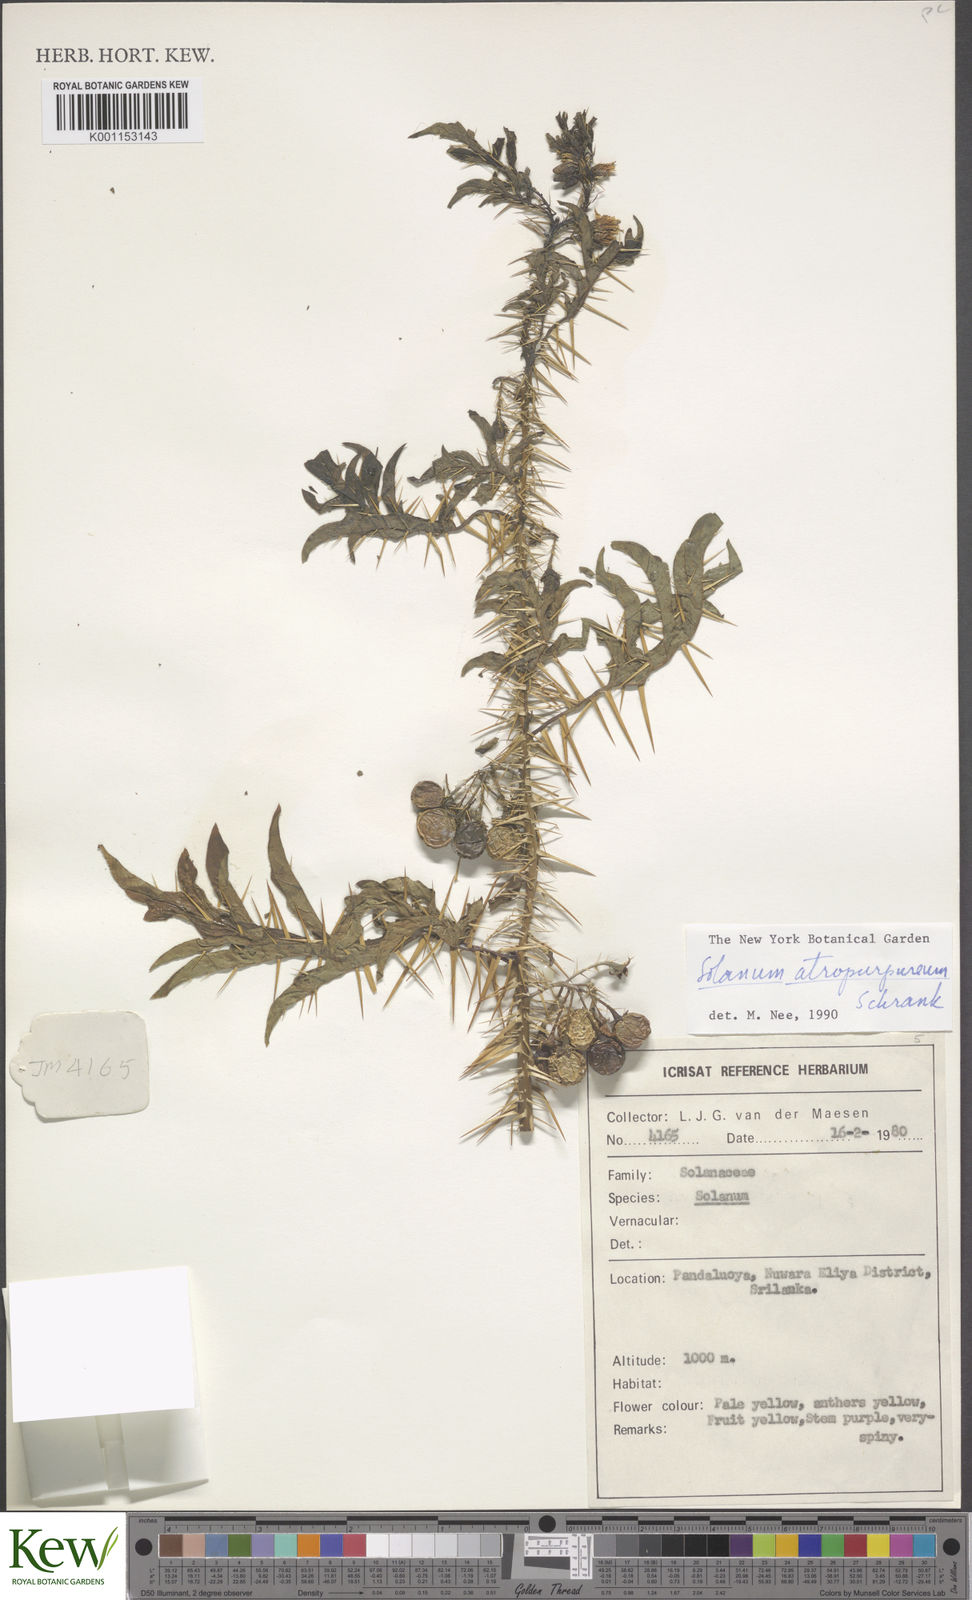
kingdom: Plantae
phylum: Tracheophyta
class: Magnoliopsida
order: Solanales
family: Solanaceae
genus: Solanum
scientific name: Solanum atropurpureum
